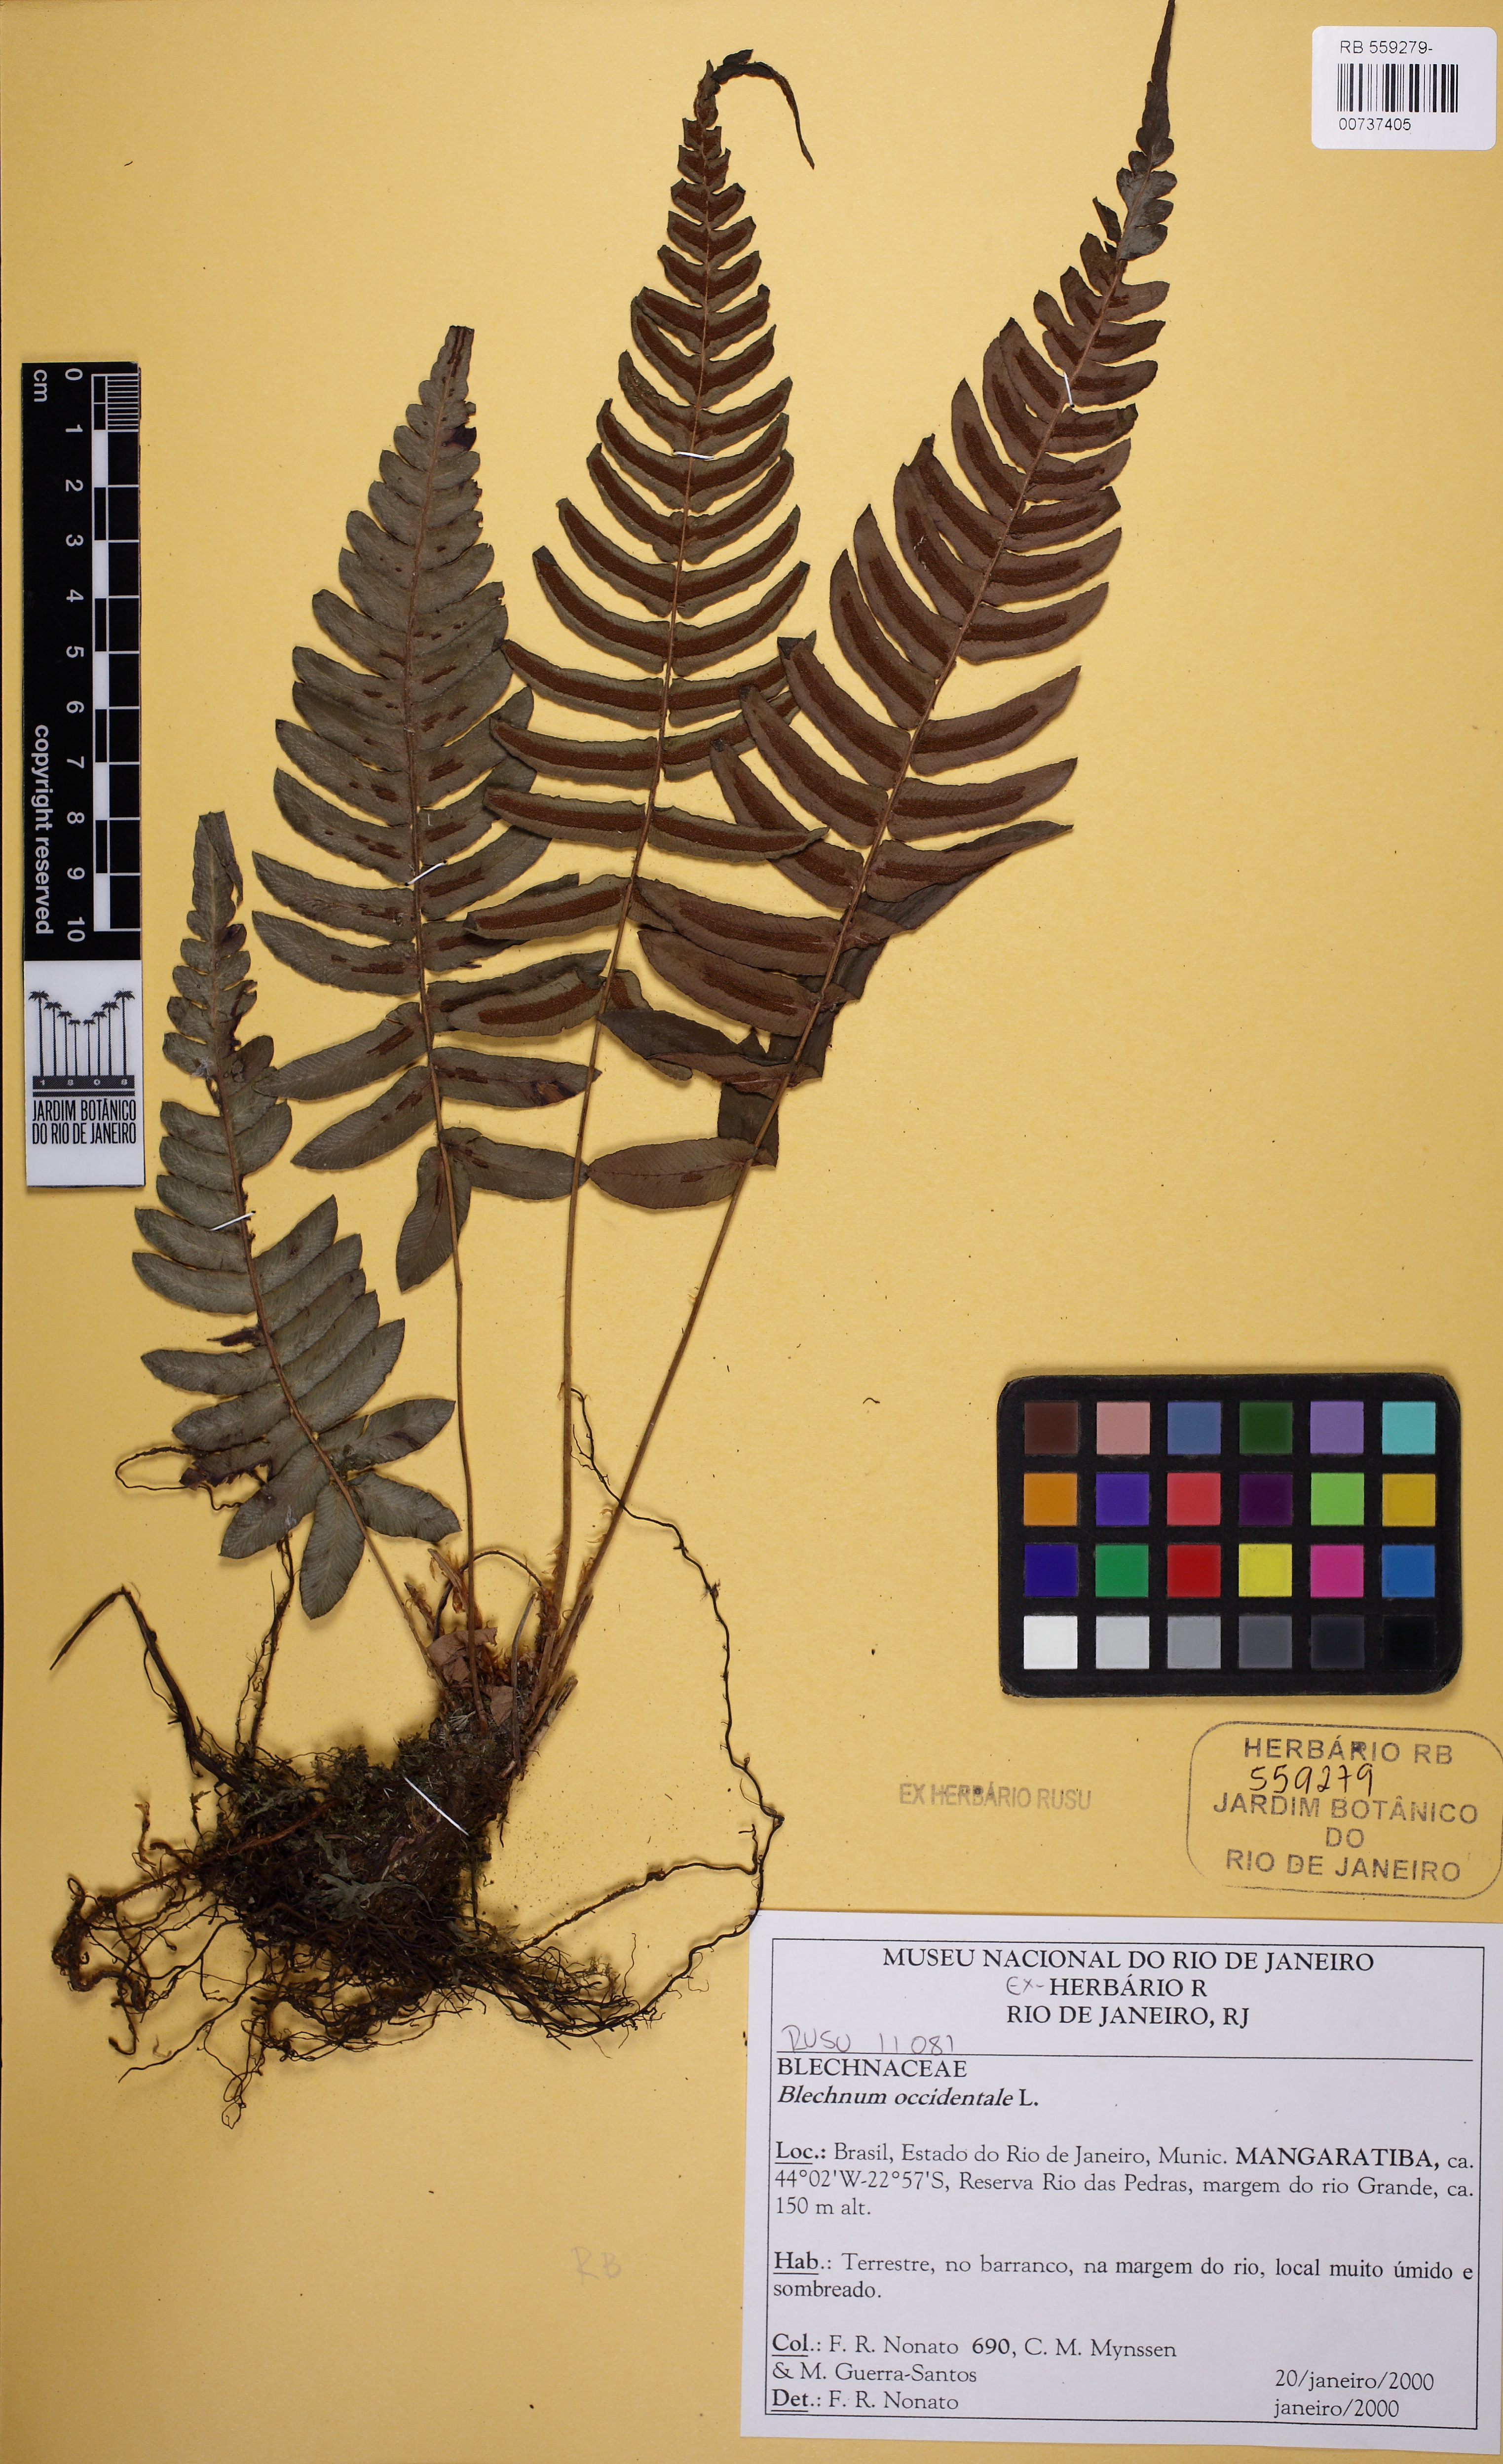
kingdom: Plantae
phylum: Tracheophyta
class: Polypodiopsida
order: Polypodiales
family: Blechnaceae
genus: Blechnum
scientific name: Blechnum occidentale
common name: Hammock fern
